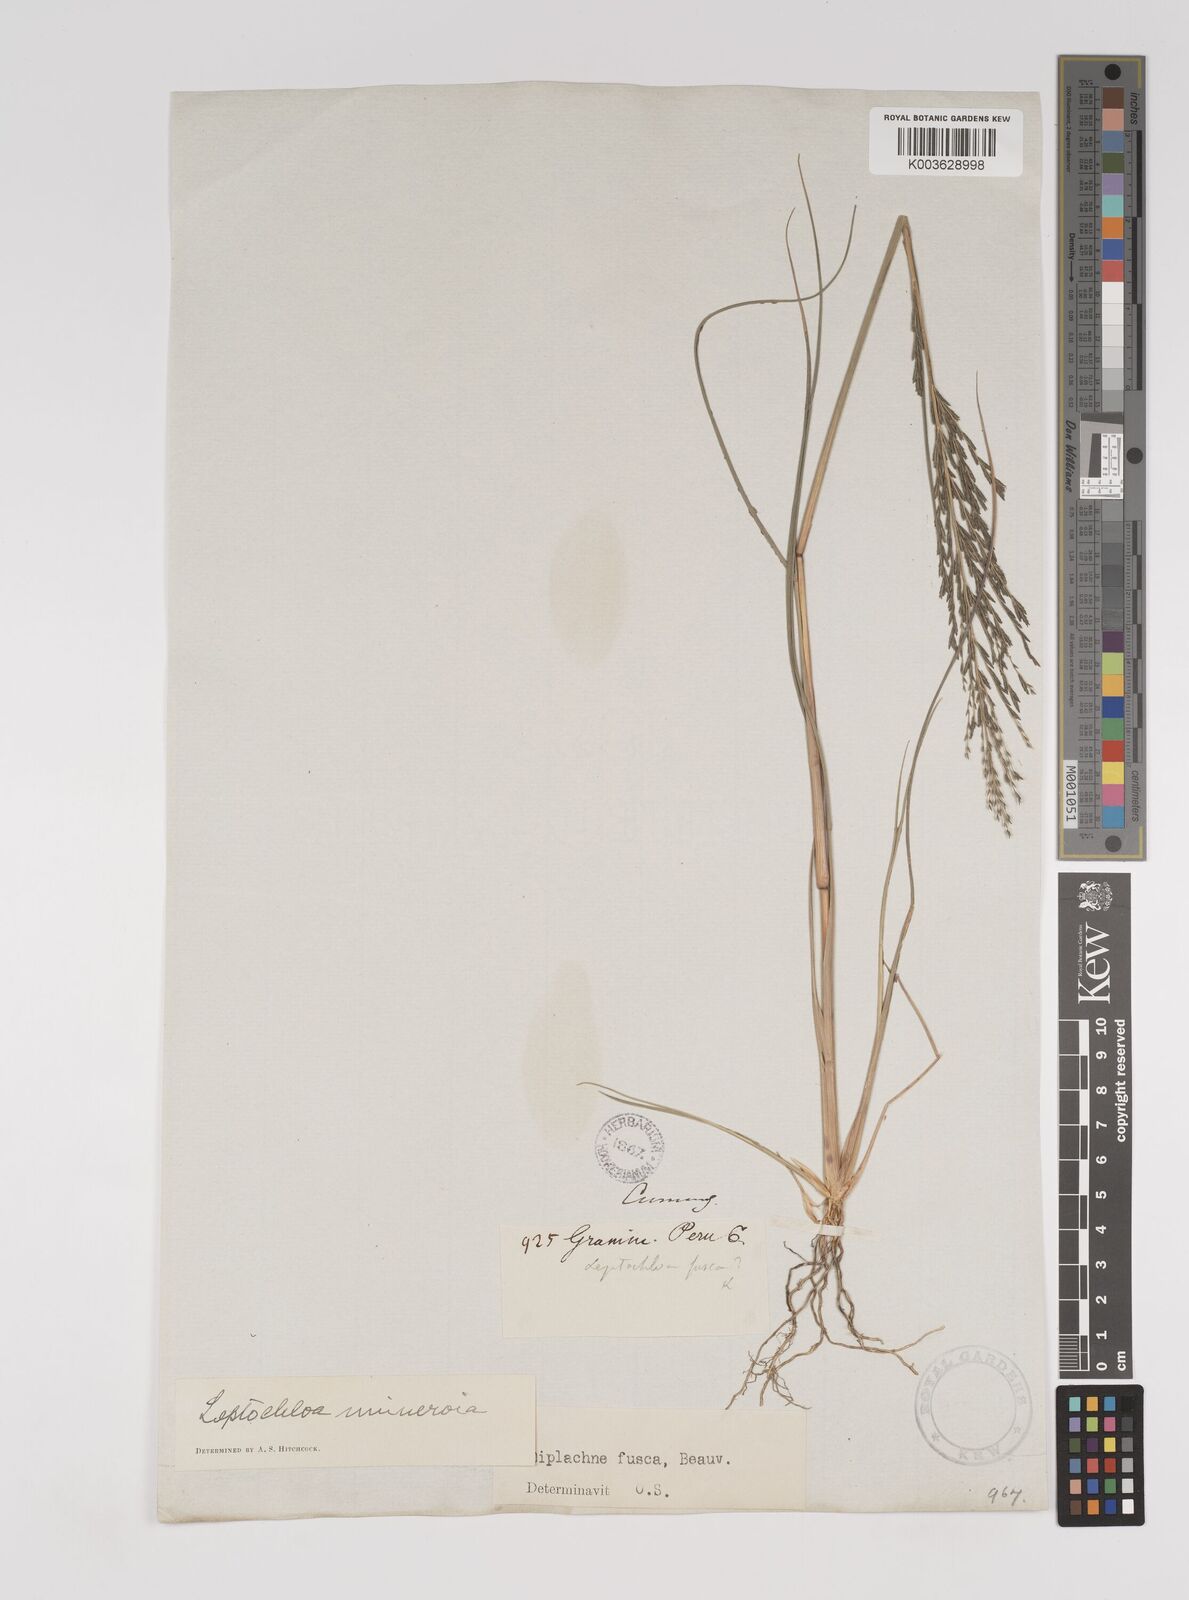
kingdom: Plantae
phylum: Tracheophyta
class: Liliopsida
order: Poales
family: Poaceae
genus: Diplachne
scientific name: Diplachne fusca
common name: Brown beetle grass
